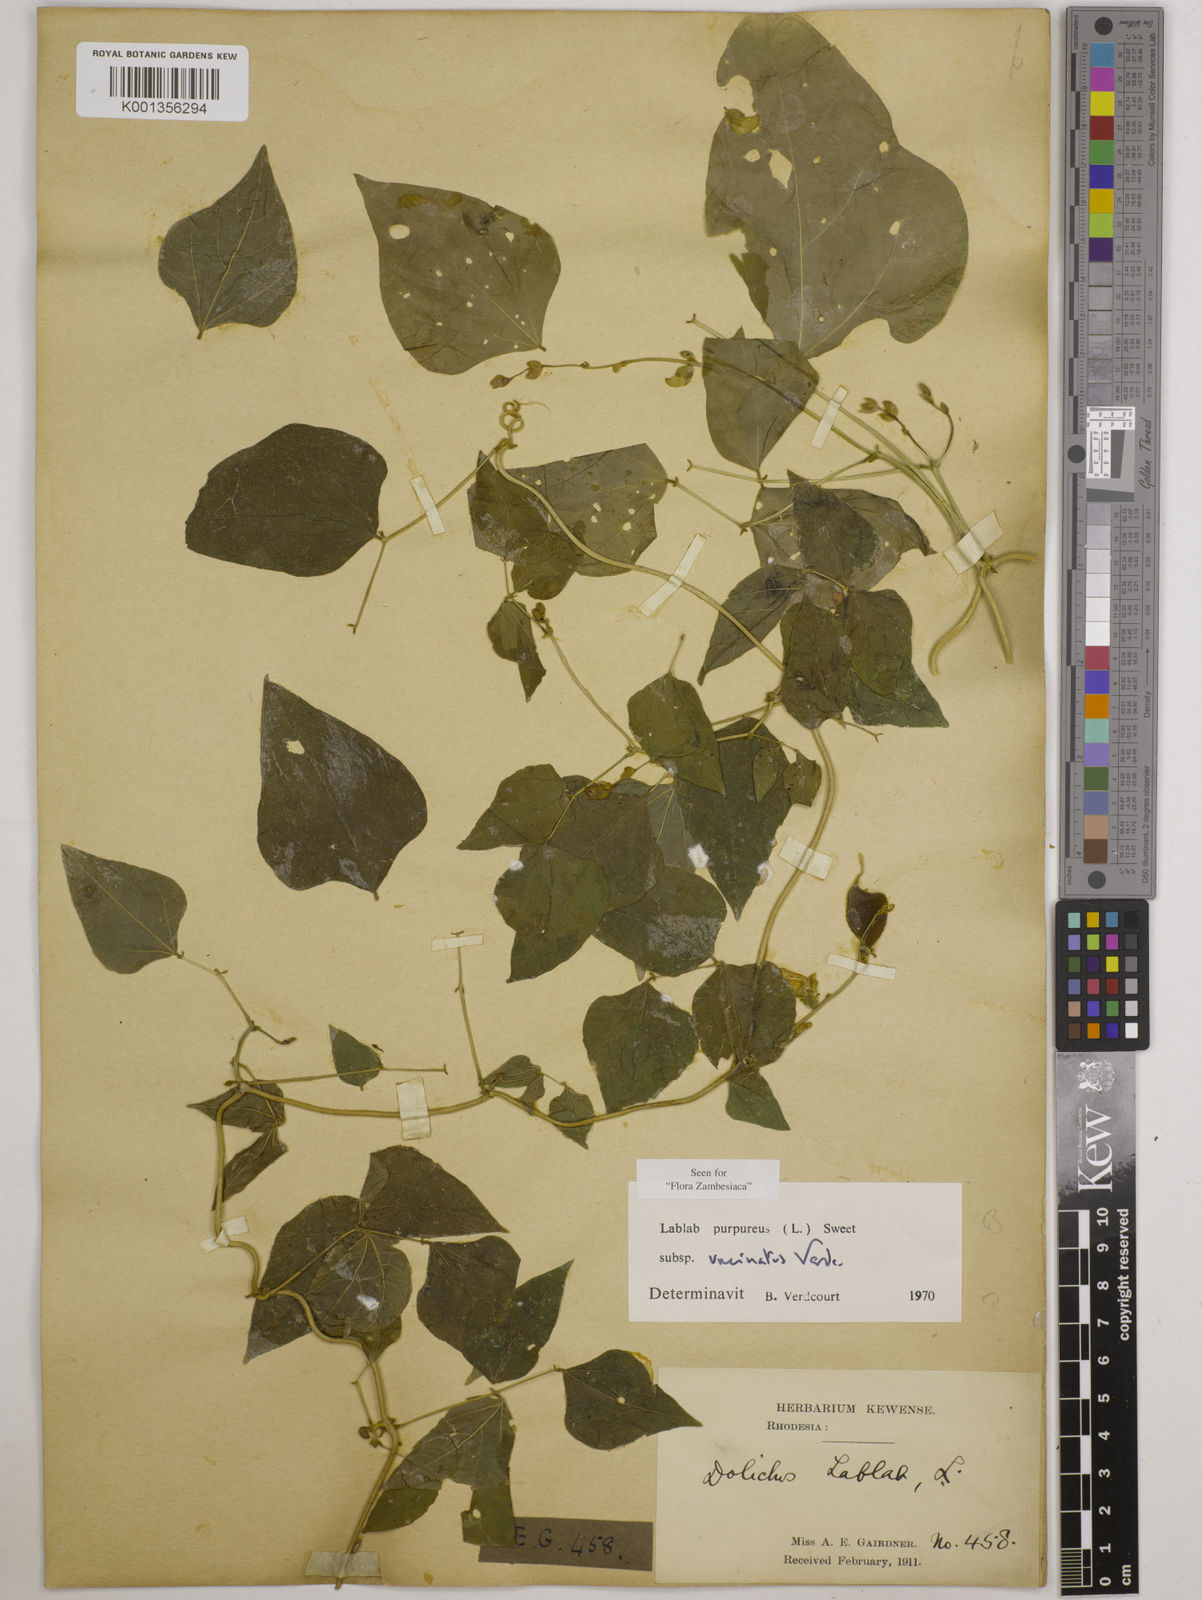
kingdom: Plantae
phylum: Tracheophyta
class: Magnoliopsida
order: Fabales
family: Fabaceae
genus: Lablab
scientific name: Lablab
